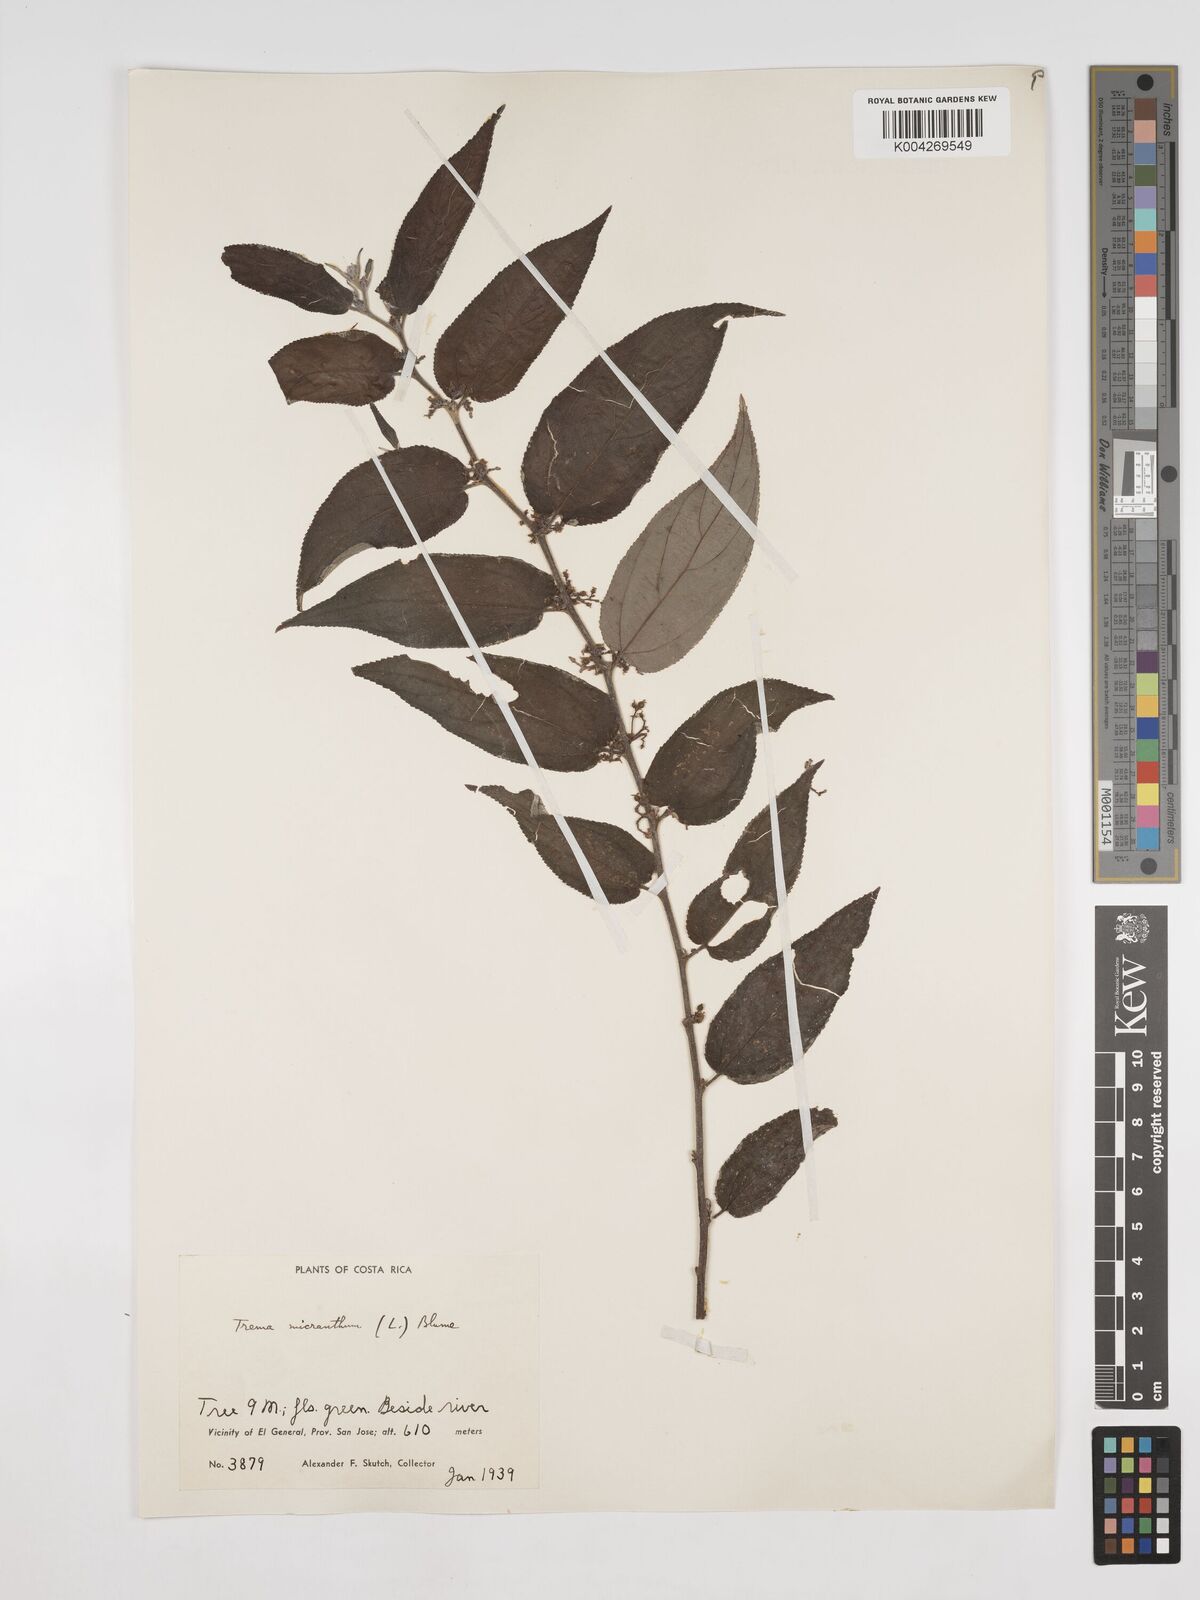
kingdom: Plantae
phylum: Tracheophyta
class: Magnoliopsida
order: Rosales
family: Cannabaceae
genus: Trema
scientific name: Trema micranthum
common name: Jamaican nettletree
